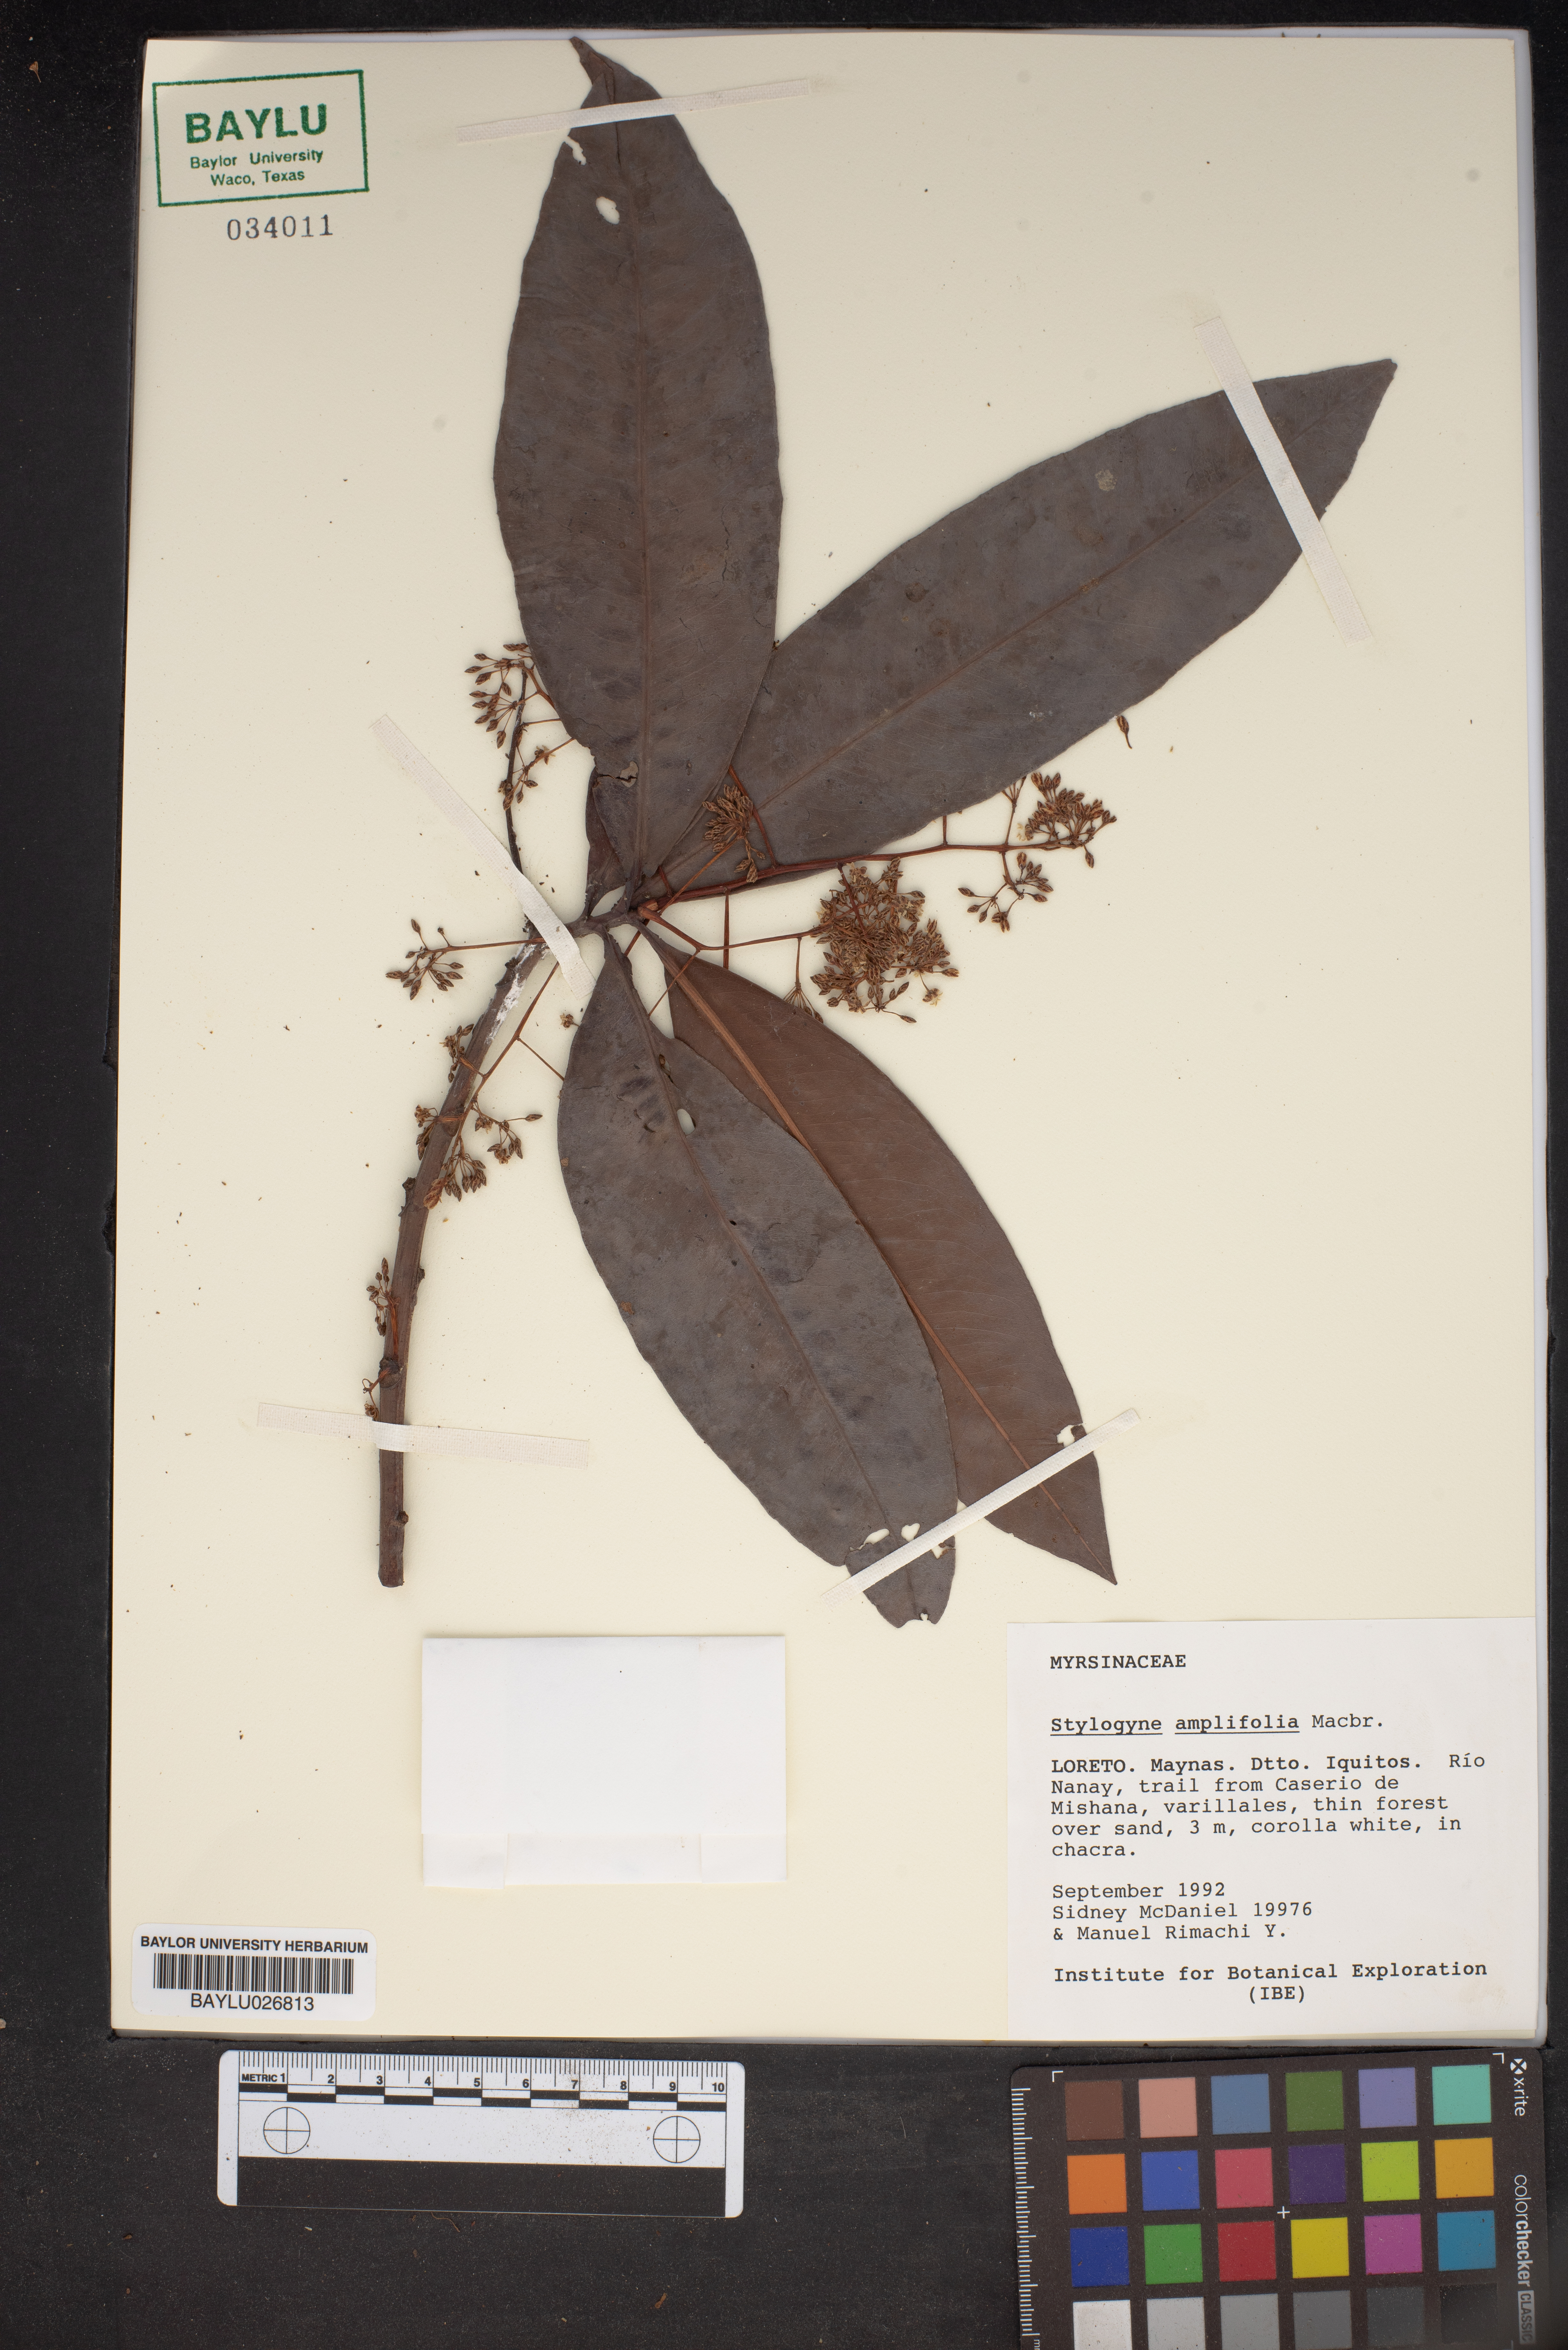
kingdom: Plantae
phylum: Tracheophyta
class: Magnoliopsida
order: Ericales
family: Primulaceae
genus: Stylogyne
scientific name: Stylogyne ardisioides
